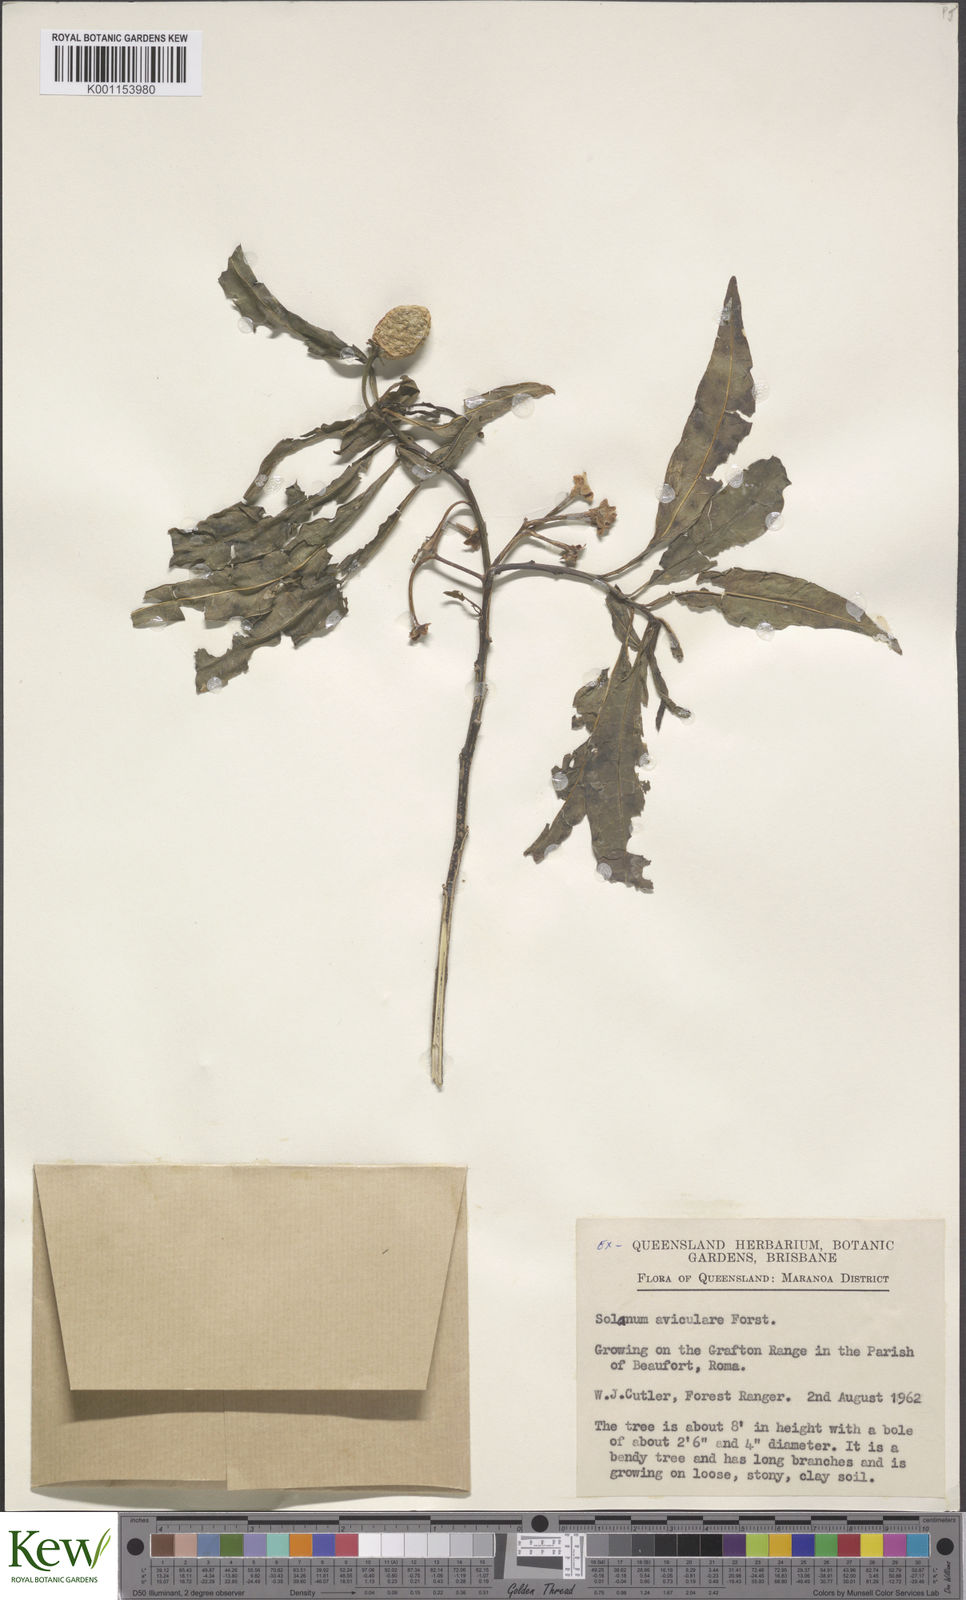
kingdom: Plantae
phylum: Tracheophyta
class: Magnoliopsida
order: Solanales
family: Solanaceae
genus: Solanum
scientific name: Solanum aviculare
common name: New zealand nightshade
